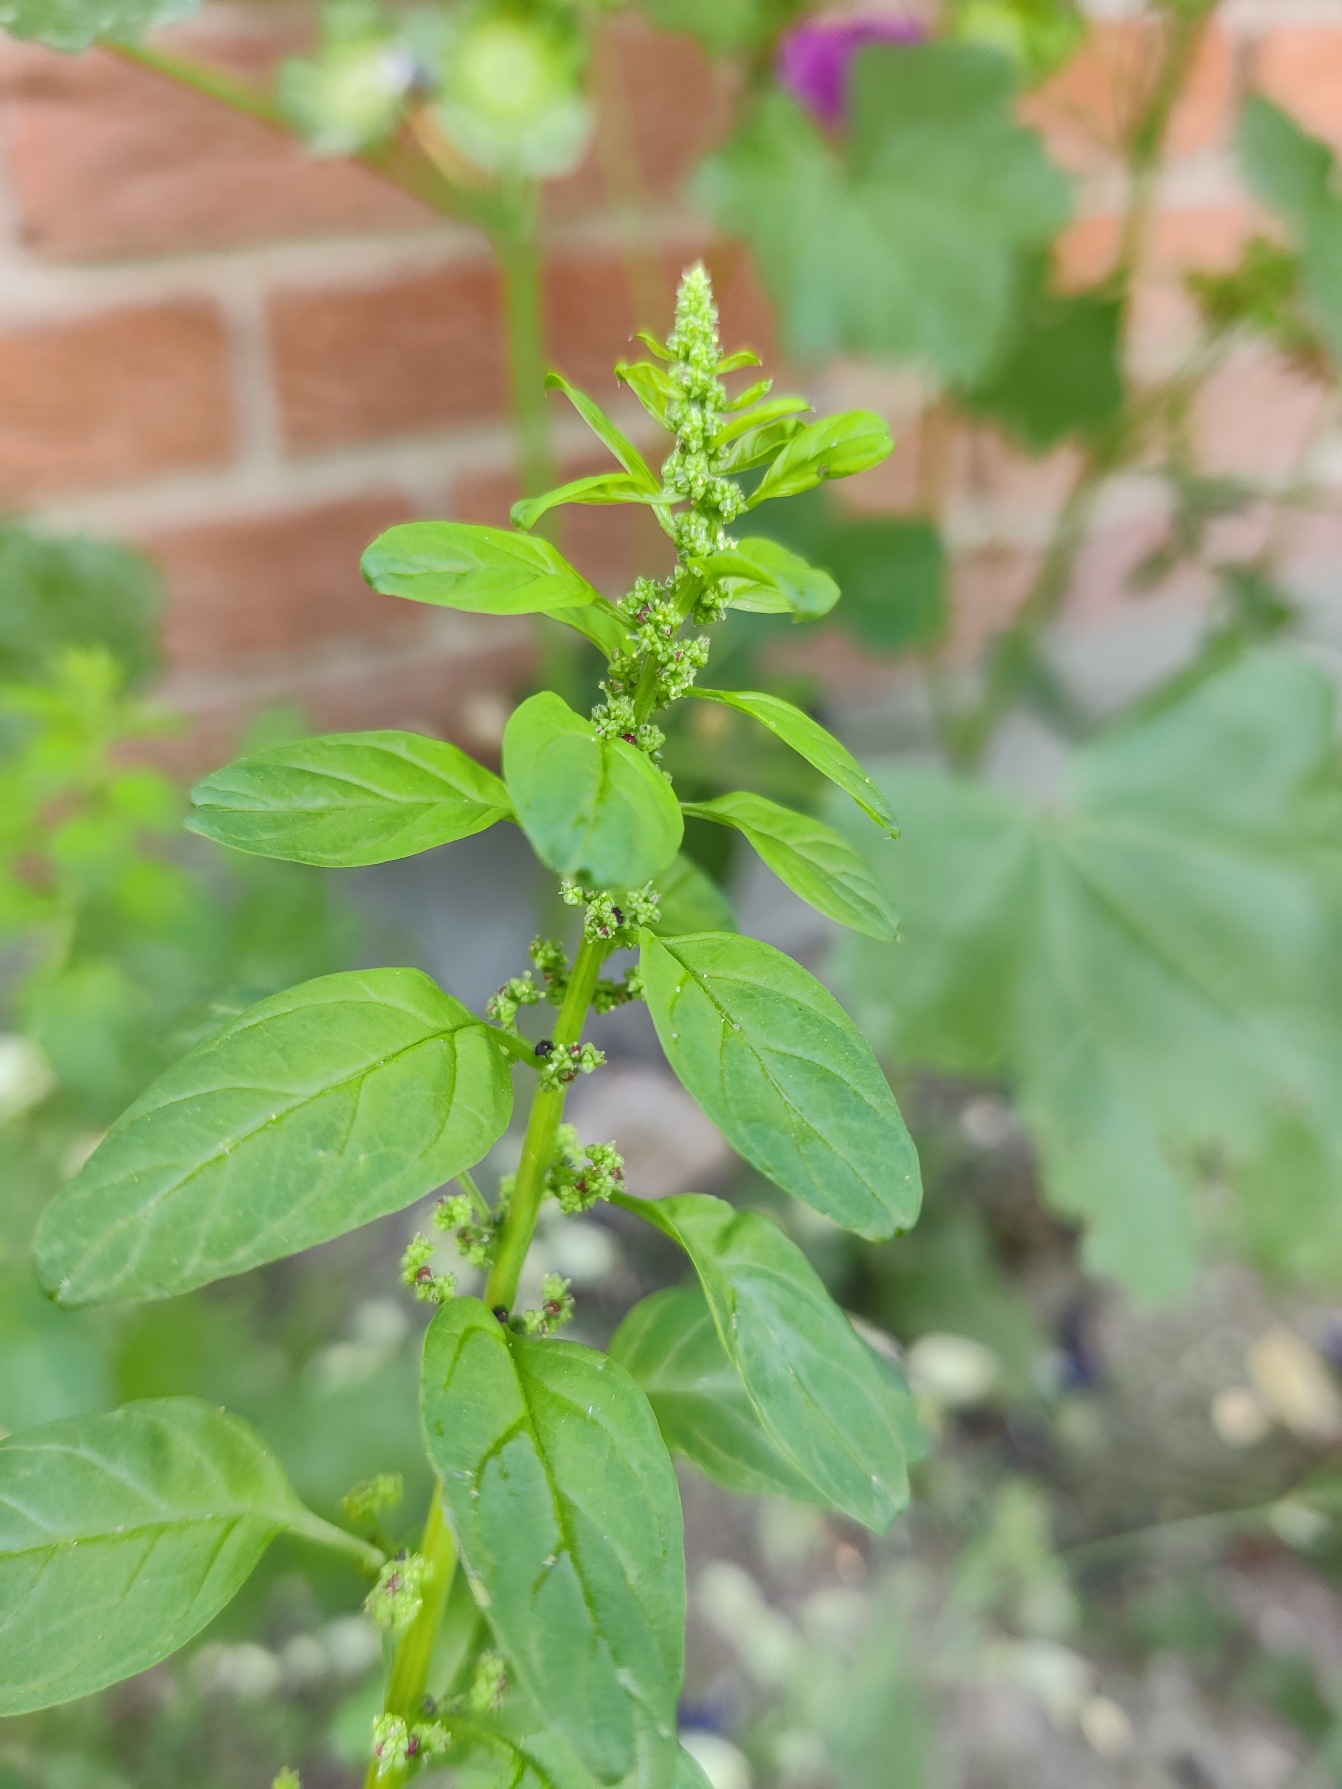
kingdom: Plantae
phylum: Tracheophyta
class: Magnoliopsida
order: Caryophyllales
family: Amaranthaceae
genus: Lipandra
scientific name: Lipandra polysperma
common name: Mangefrøet gåsefod
